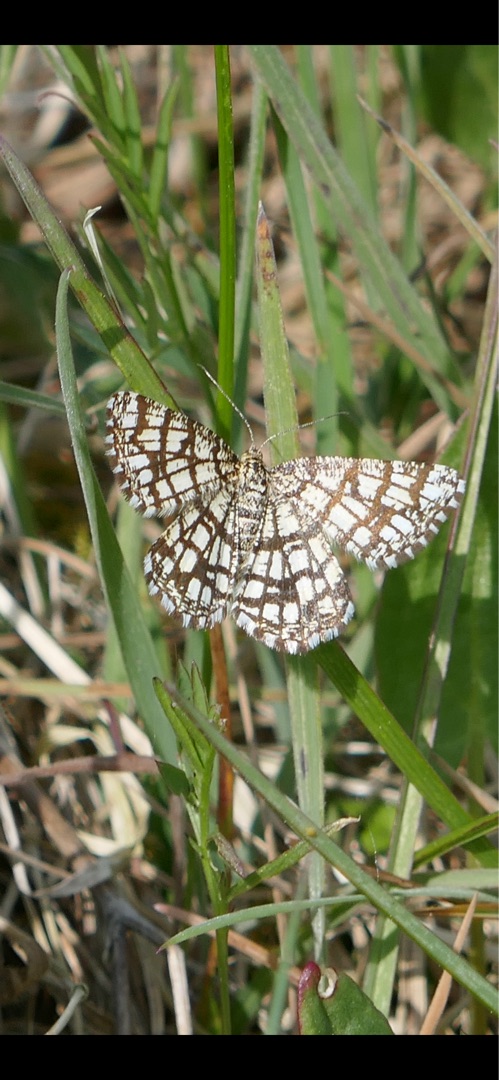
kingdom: Animalia
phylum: Arthropoda
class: Insecta
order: Lepidoptera
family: Geometridae
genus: Chiasmia
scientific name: Chiasmia clathrata
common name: Kløvermåler
